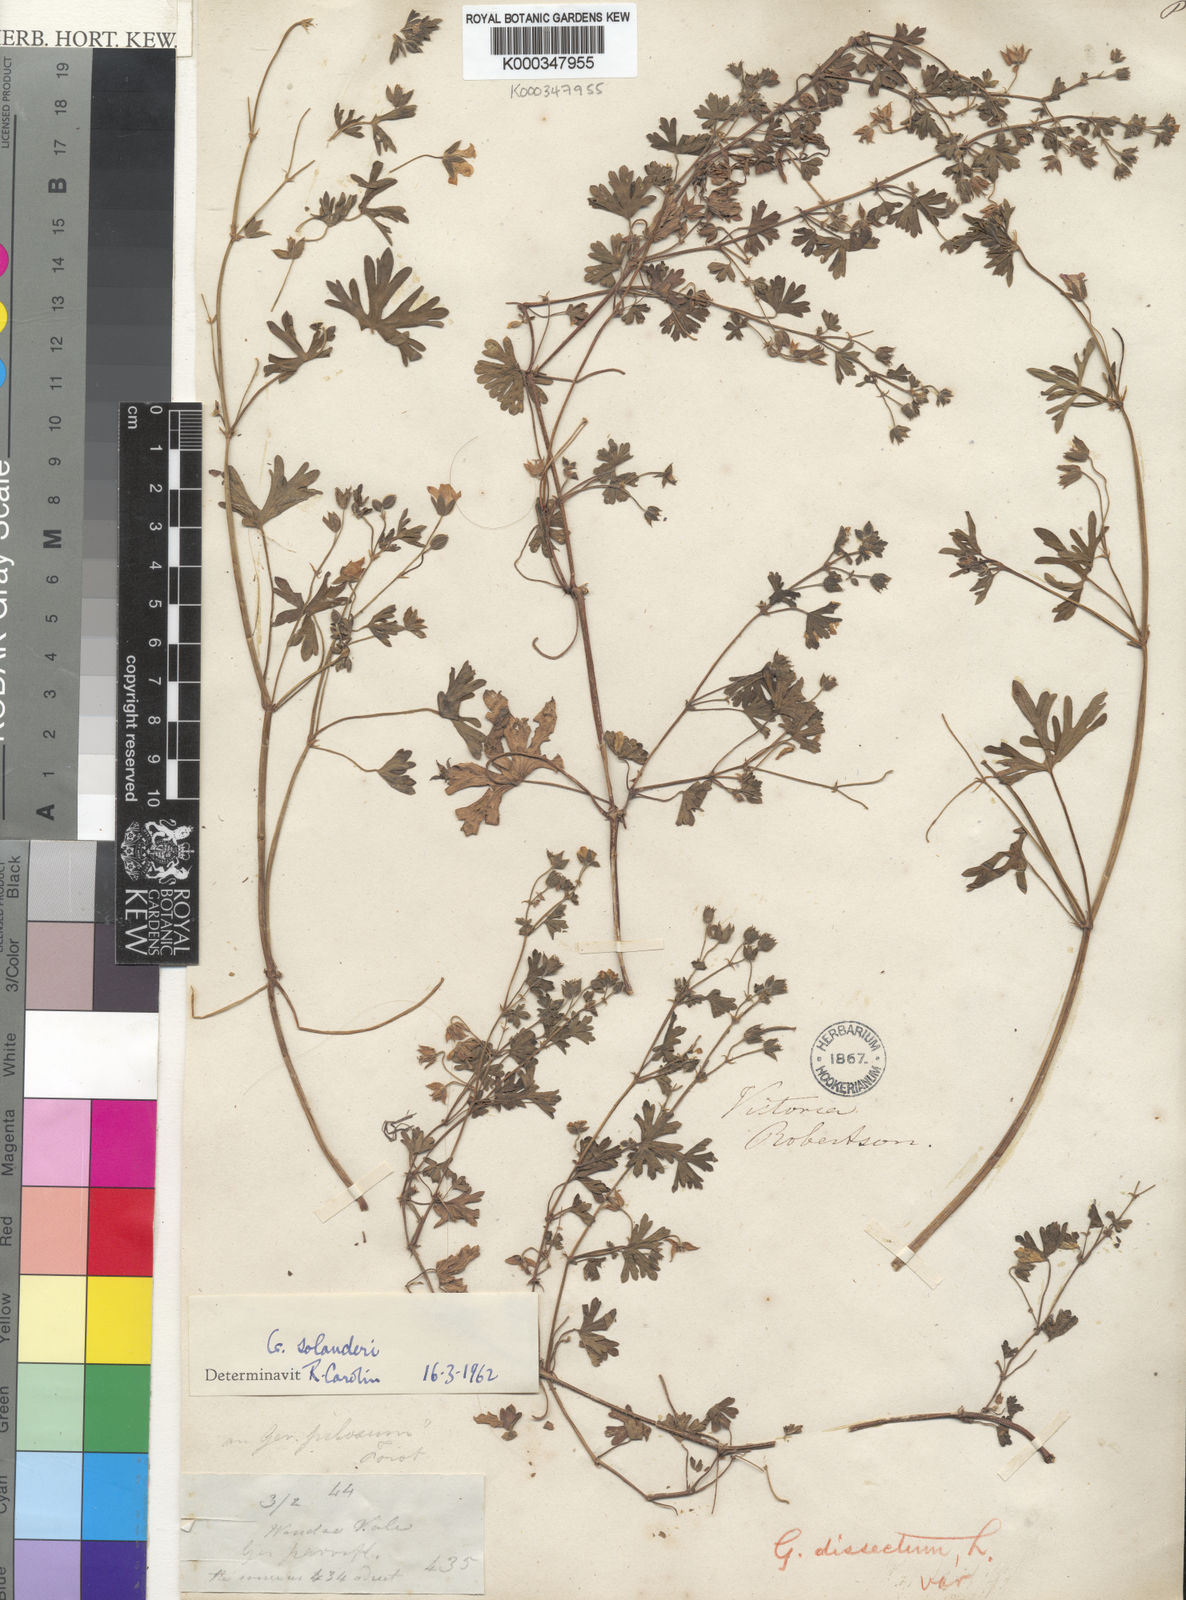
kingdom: Plantae
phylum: Tracheophyta
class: Magnoliopsida
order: Geraniales
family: Geraniaceae
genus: Geranium
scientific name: Geranium solanderi
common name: Solander's geranium
